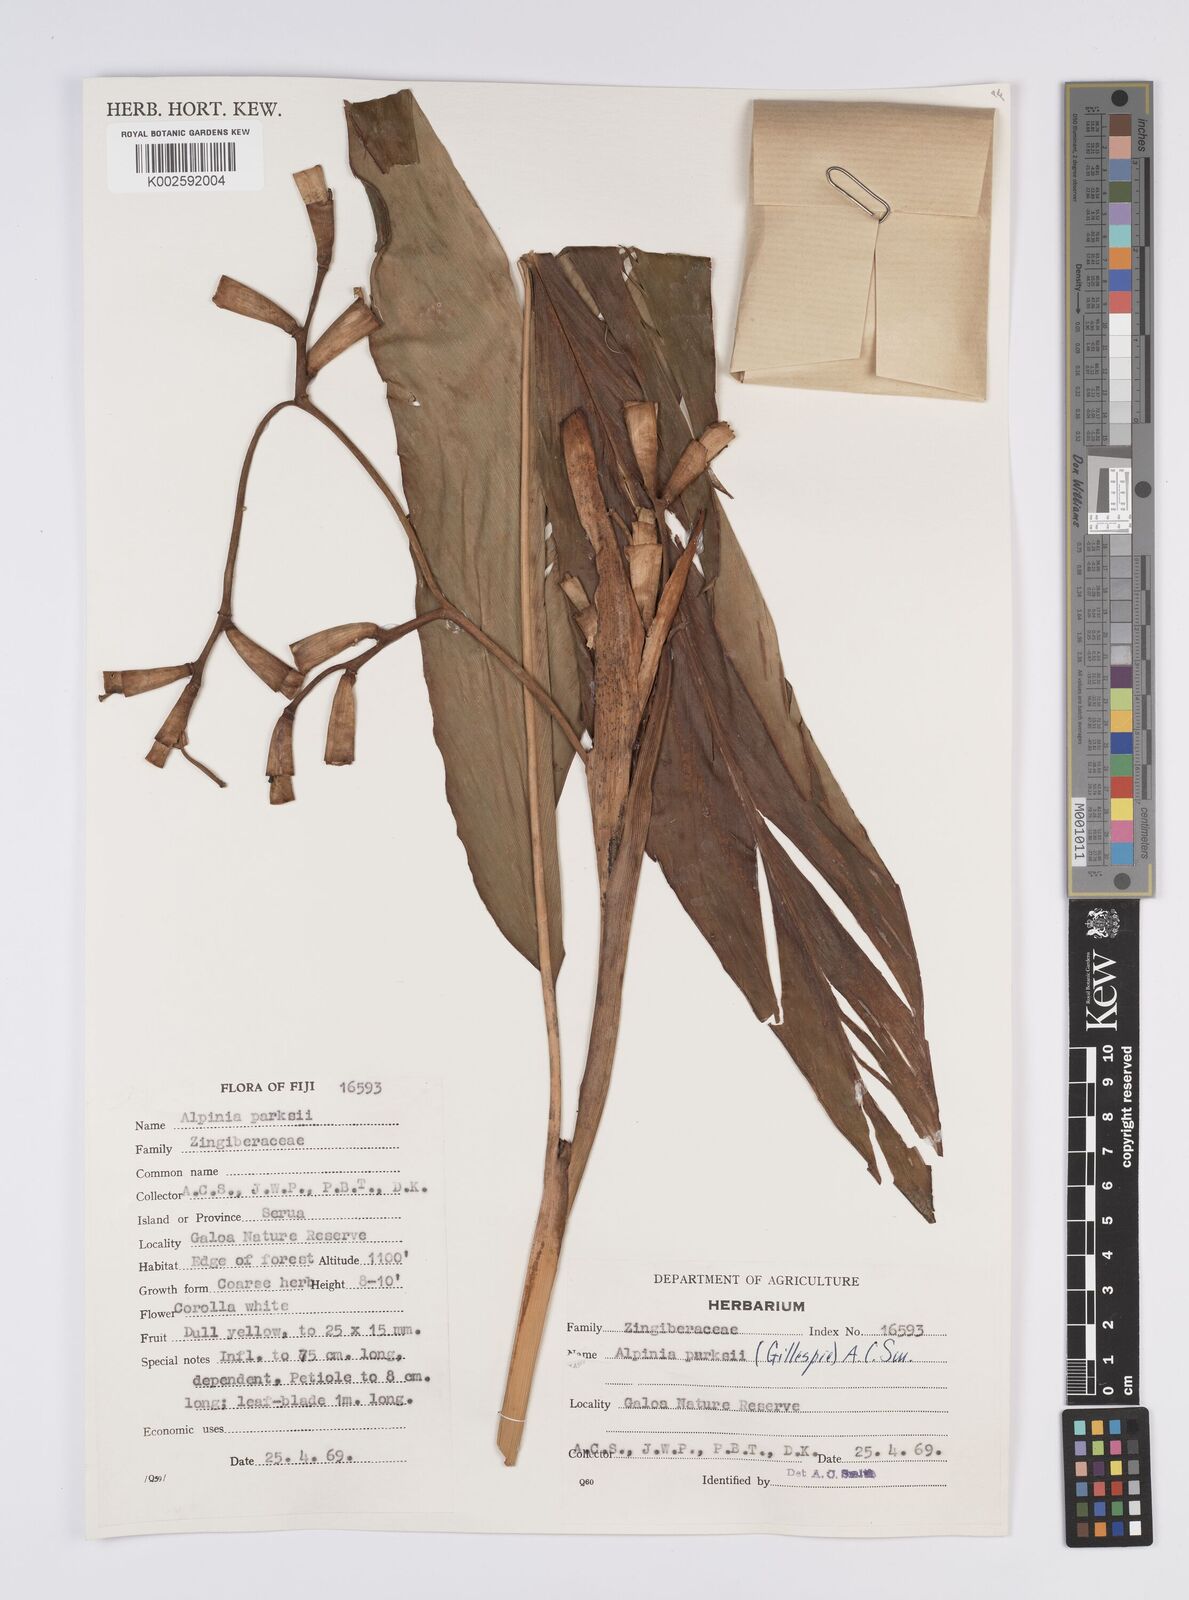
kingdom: Plantae
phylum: Tracheophyta
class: Liliopsida
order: Zingiberales
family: Zingiberaceae
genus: Alpinia
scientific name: Alpinia parksii
